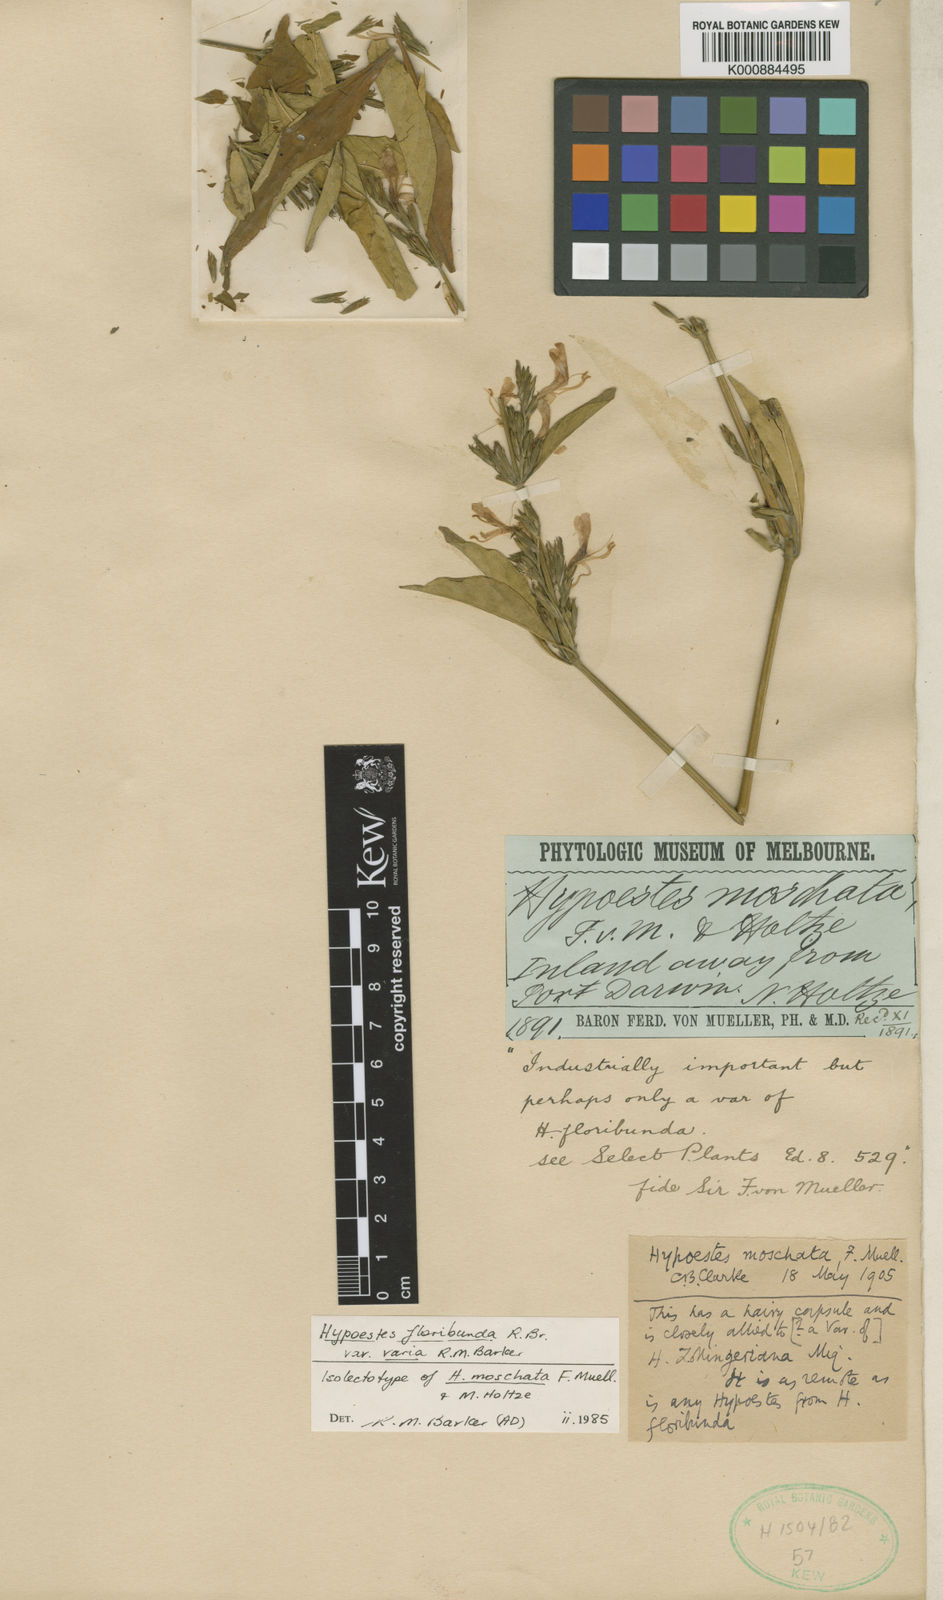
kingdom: Plantae
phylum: Tracheophyta
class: Magnoliopsida
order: Lamiales
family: Acanthaceae
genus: Hypoestes
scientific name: Hypoestes floribunda
